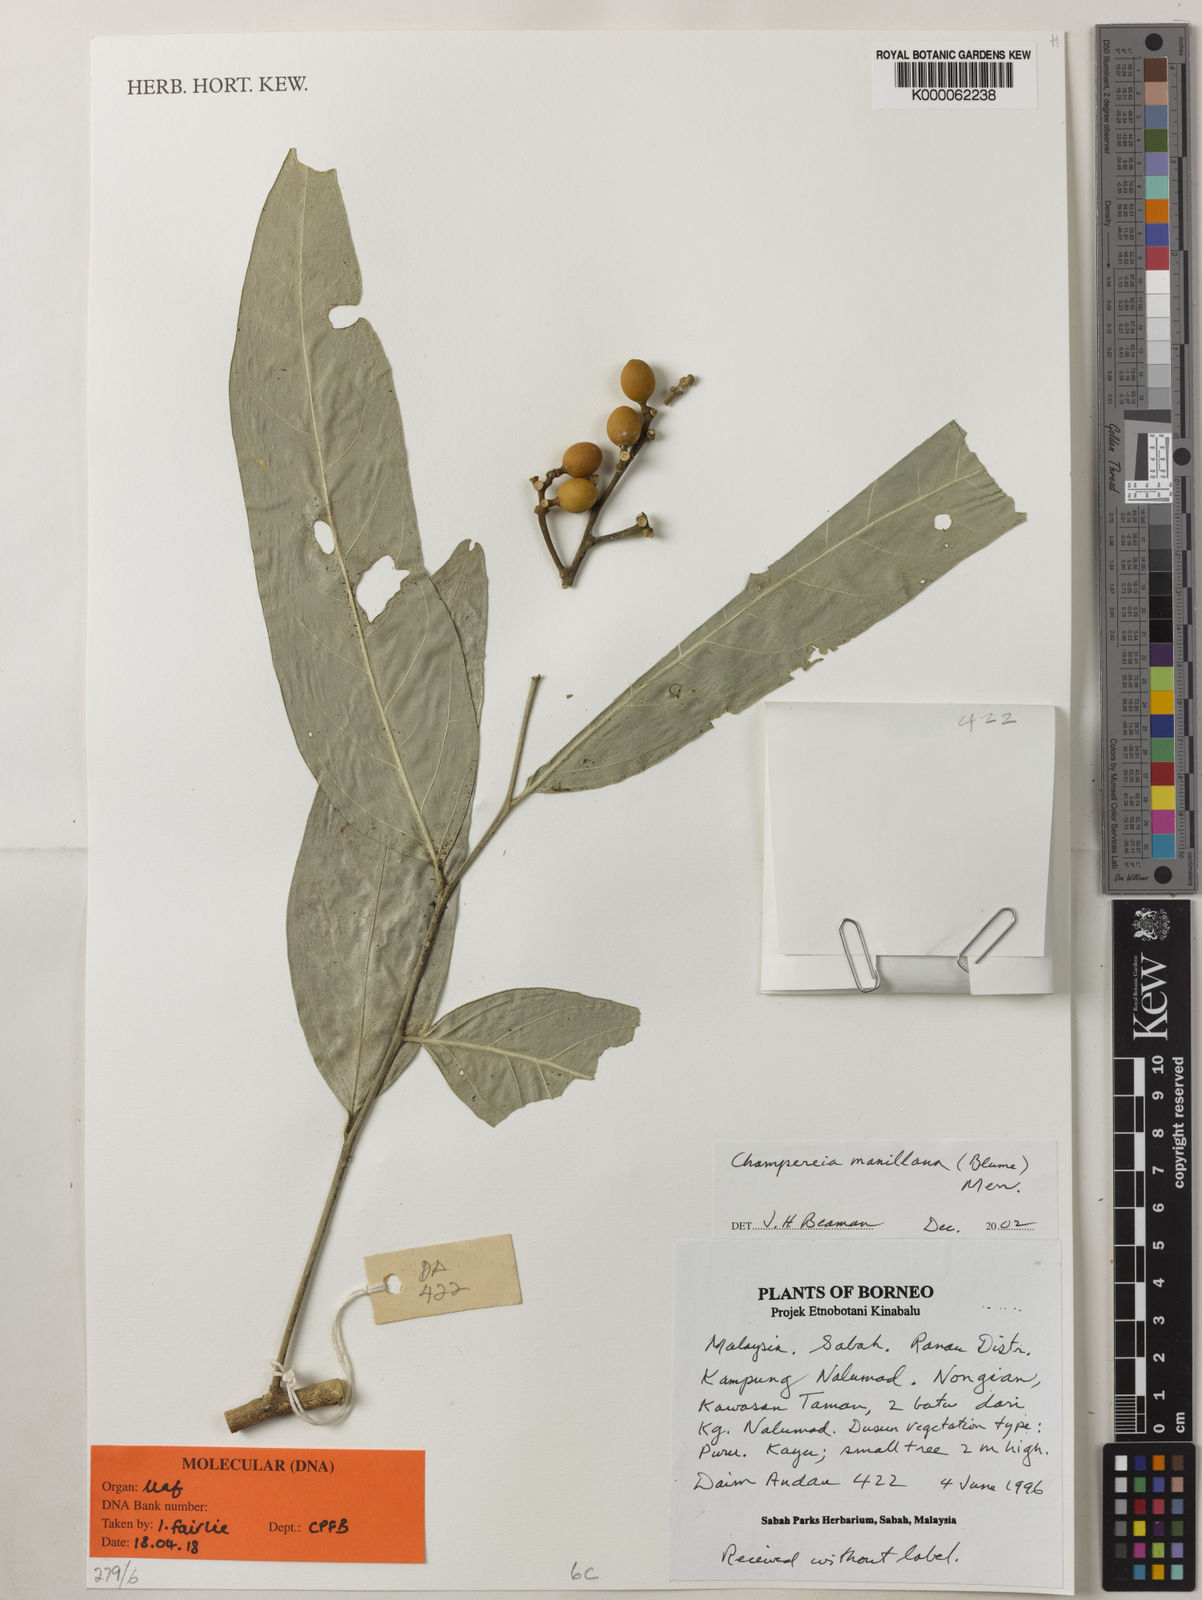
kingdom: Plantae
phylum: Tracheophyta
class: Magnoliopsida
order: Santalales
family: Opiliaceae
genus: Champereia
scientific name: Champereia
